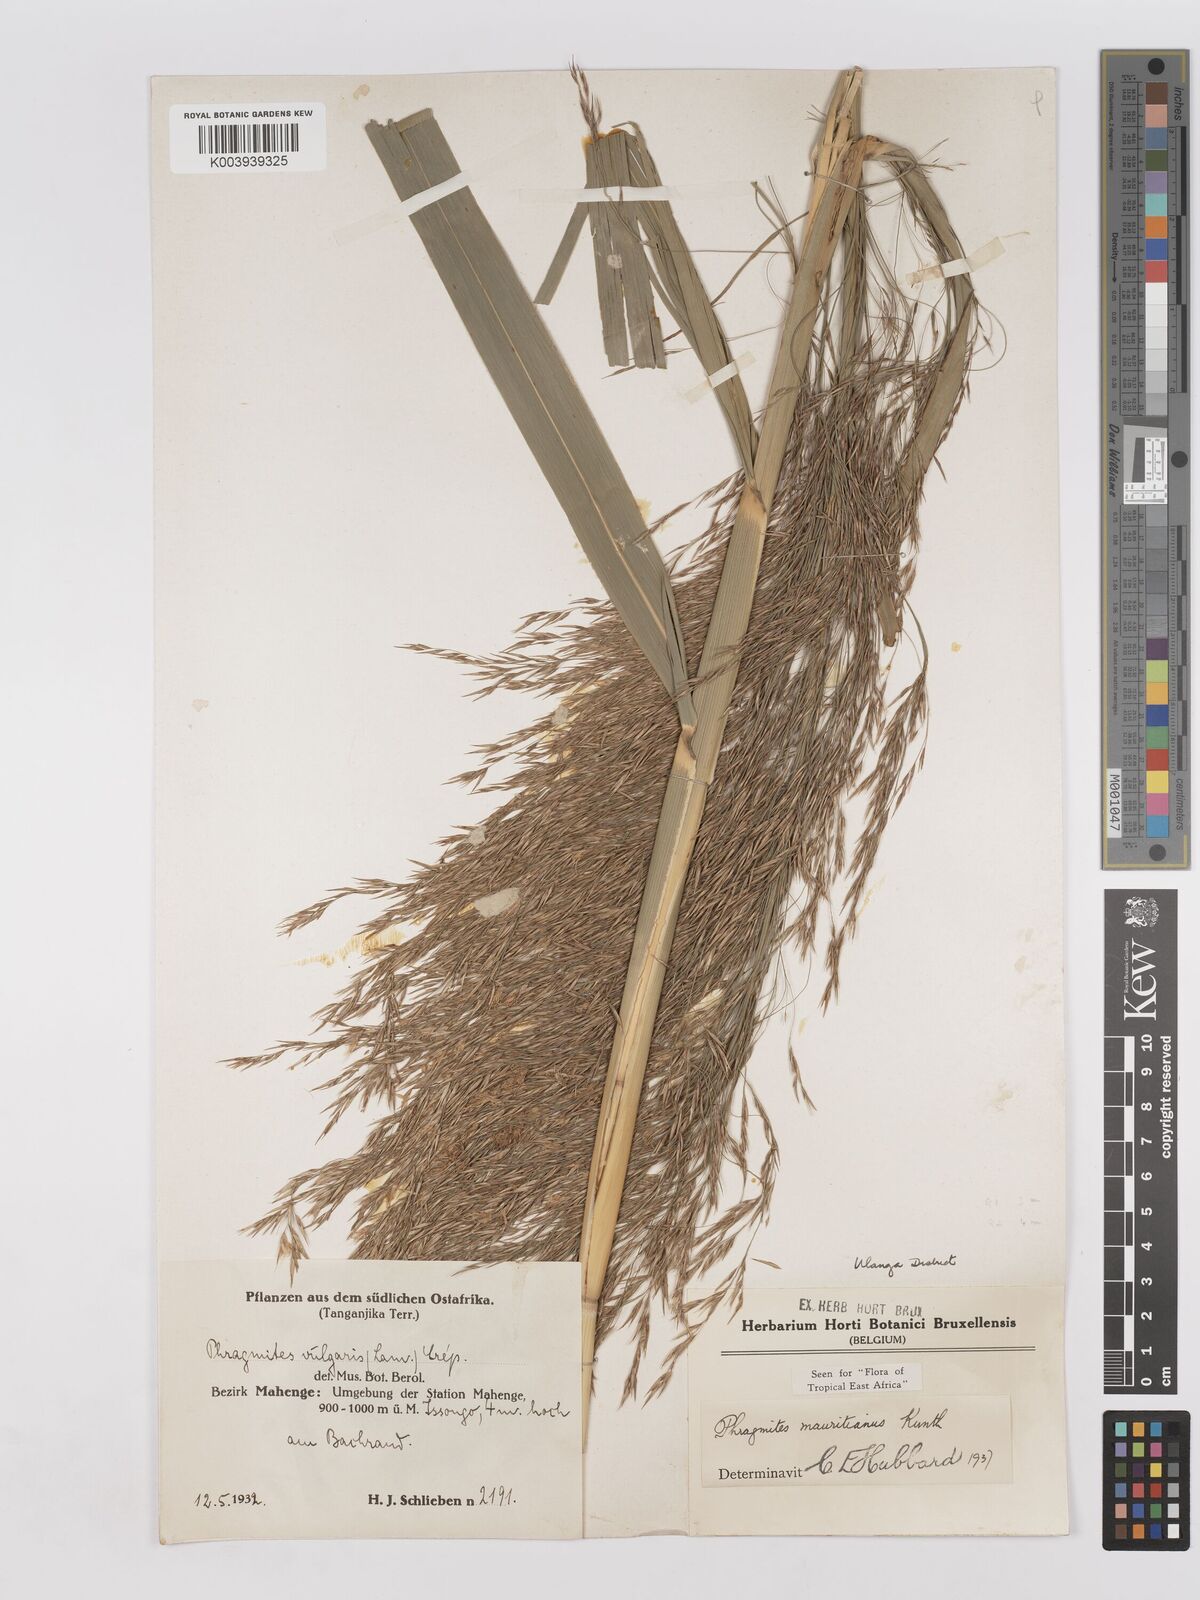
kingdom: Plantae
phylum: Tracheophyta
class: Liliopsida
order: Poales
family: Poaceae
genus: Phragmites
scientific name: Phragmites mauritianus
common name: Reed grass
